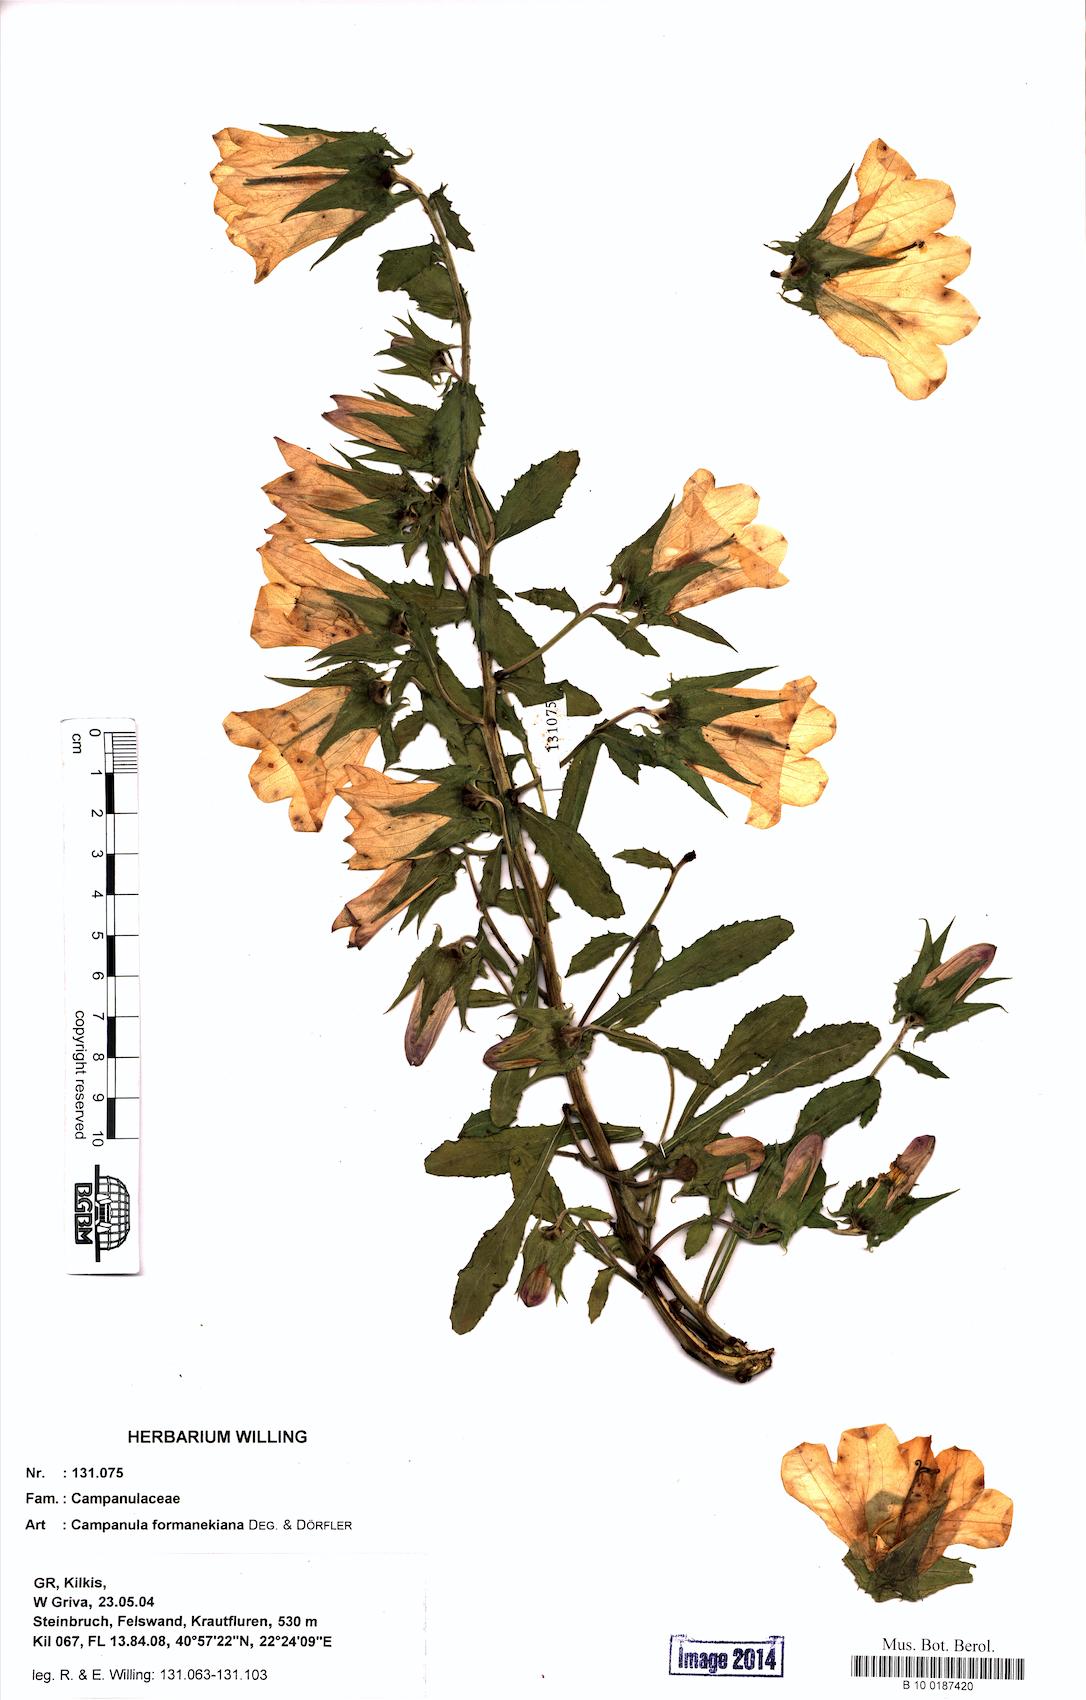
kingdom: Plantae
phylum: Tracheophyta
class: Magnoliopsida
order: Asterales
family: Campanulaceae
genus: Campanula
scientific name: Campanula formanekiana
